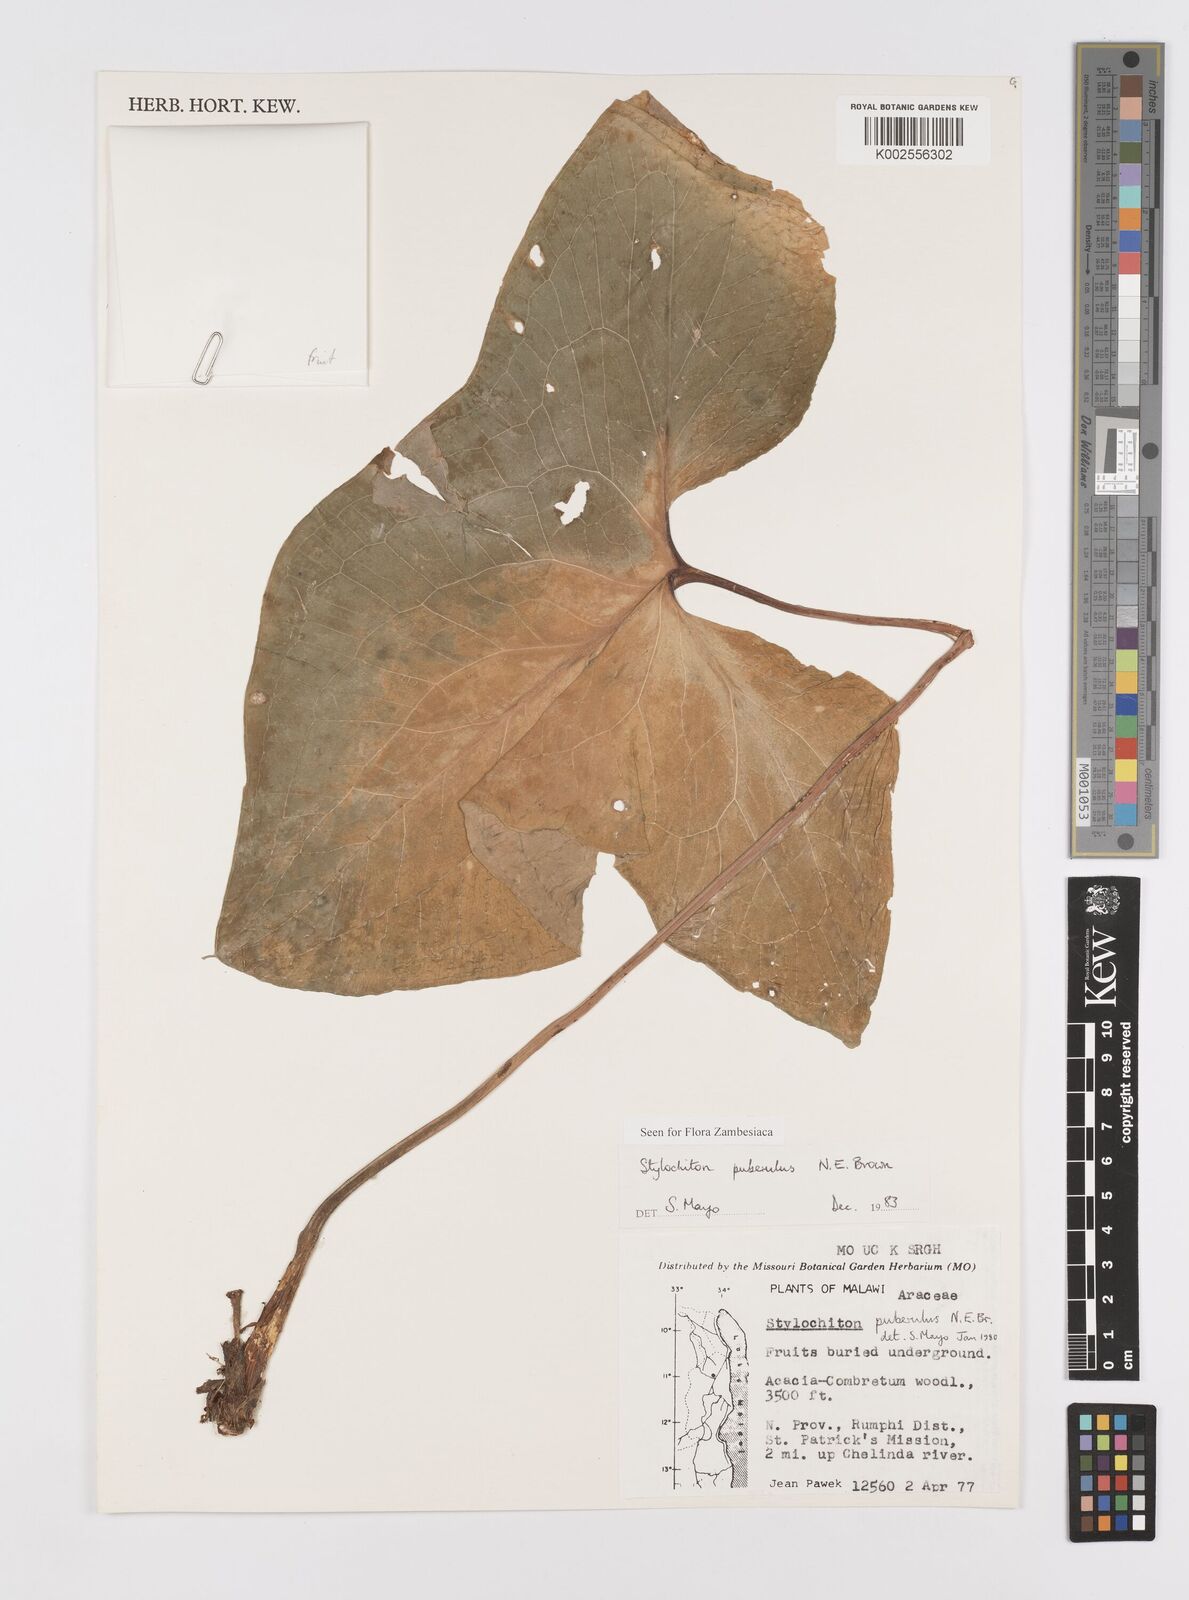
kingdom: Plantae
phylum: Tracheophyta
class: Liliopsida
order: Alismatales
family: Araceae
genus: Stylochaeton
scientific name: Stylochaeton puberulum
